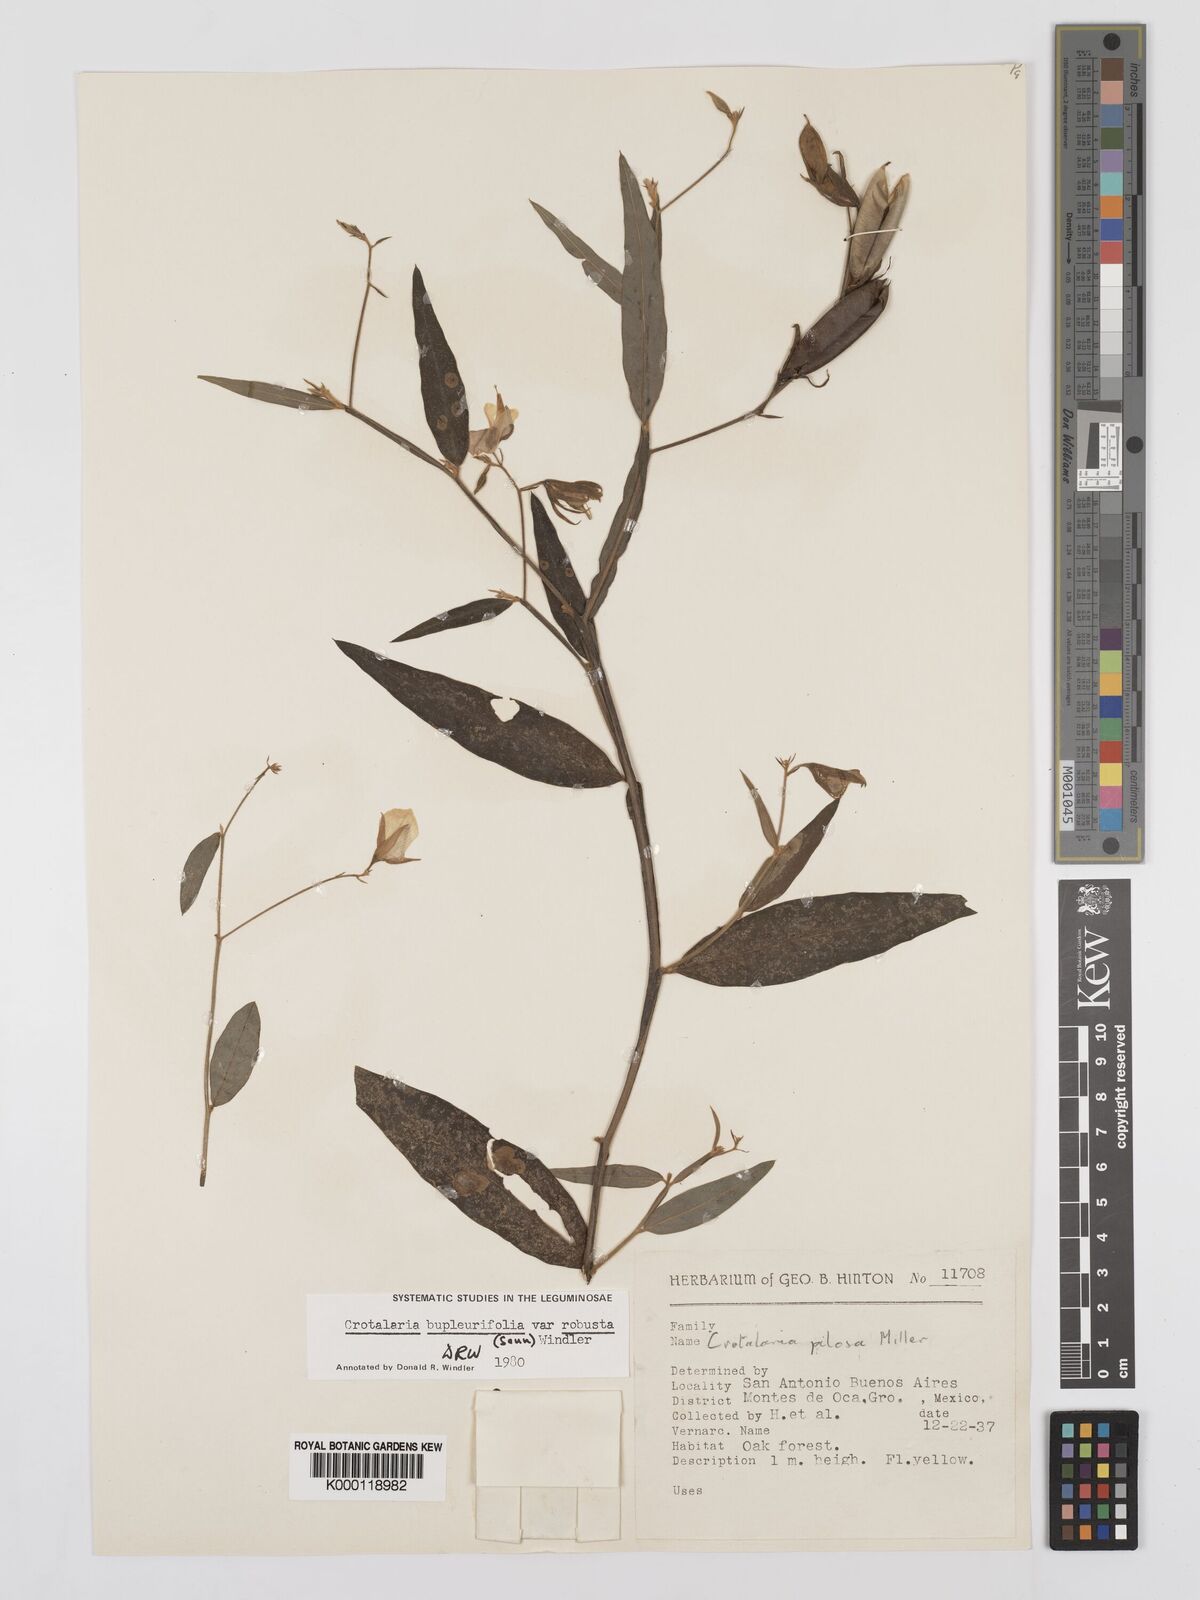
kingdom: Plantae
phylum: Tracheophyta
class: Magnoliopsida
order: Fabales
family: Fabaceae
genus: Crotalaria
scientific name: Crotalaria bupleurifolia
